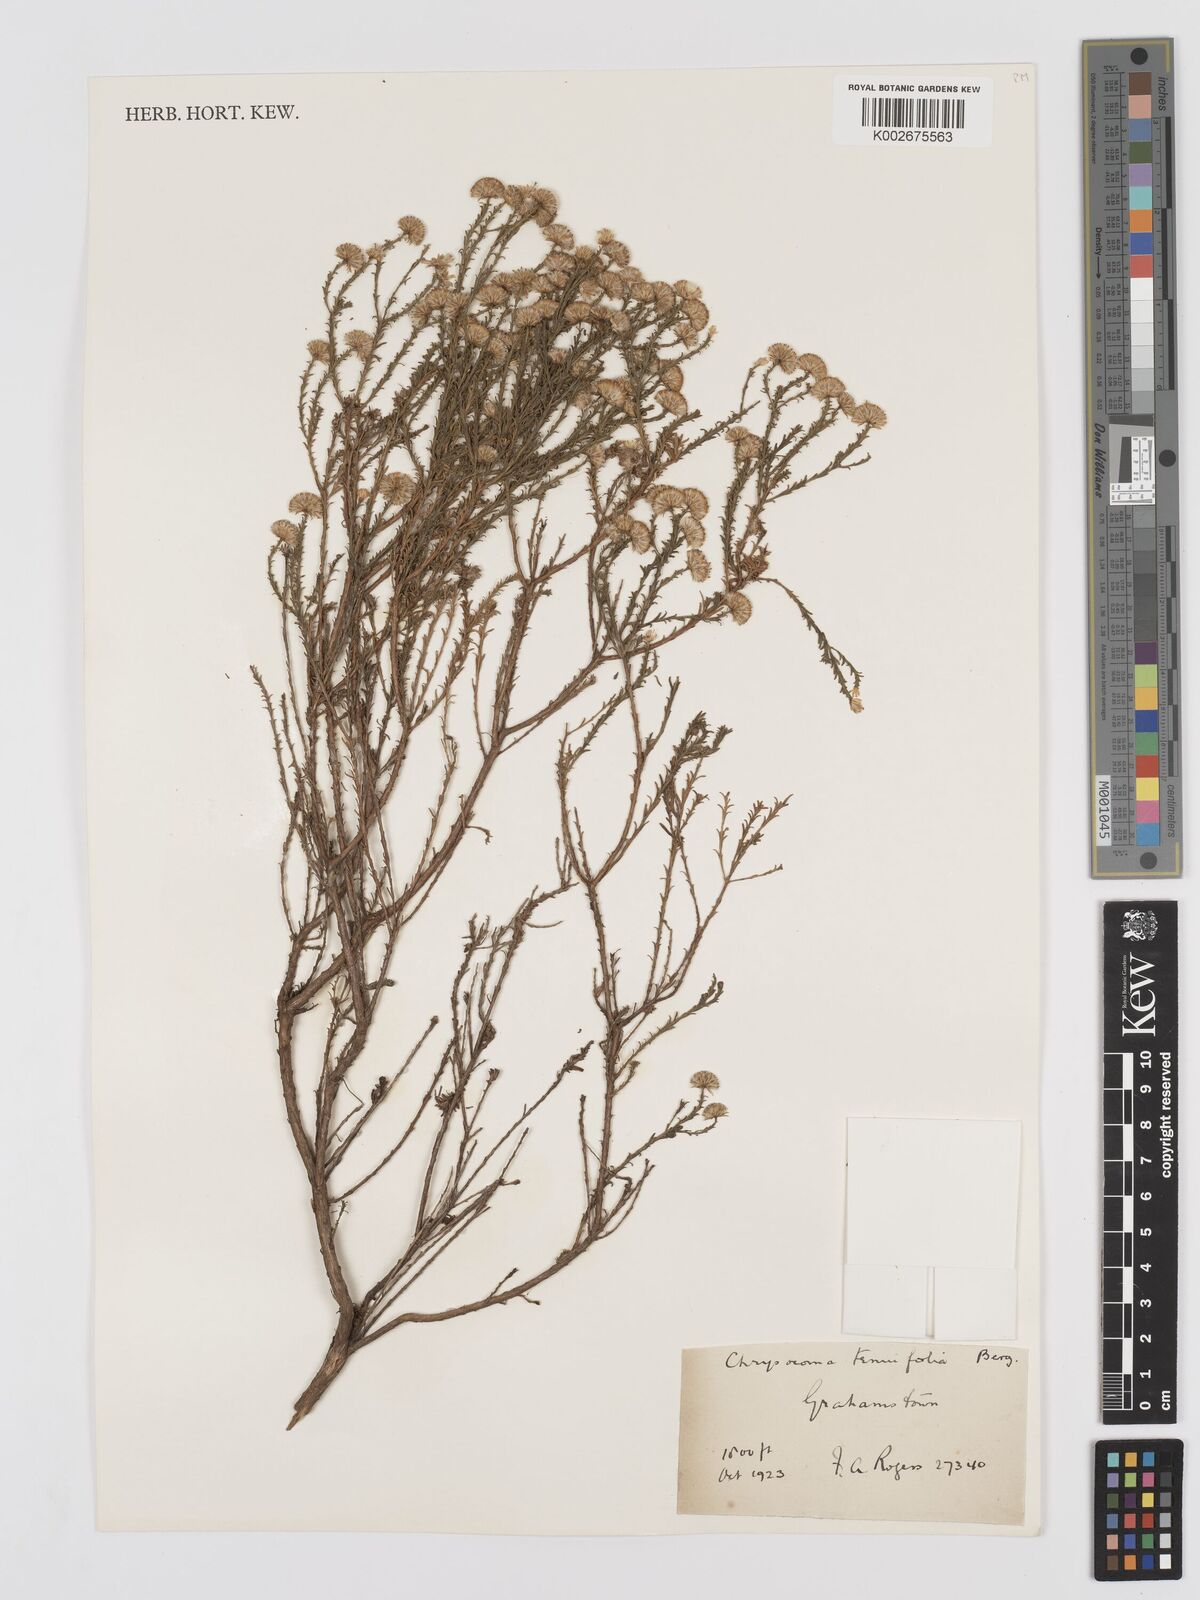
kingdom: Plantae
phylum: Tracheophyta
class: Magnoliopsida
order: Asterales
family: Asteraceae
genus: Chrysocoma
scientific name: Chrysocoma ciliata
